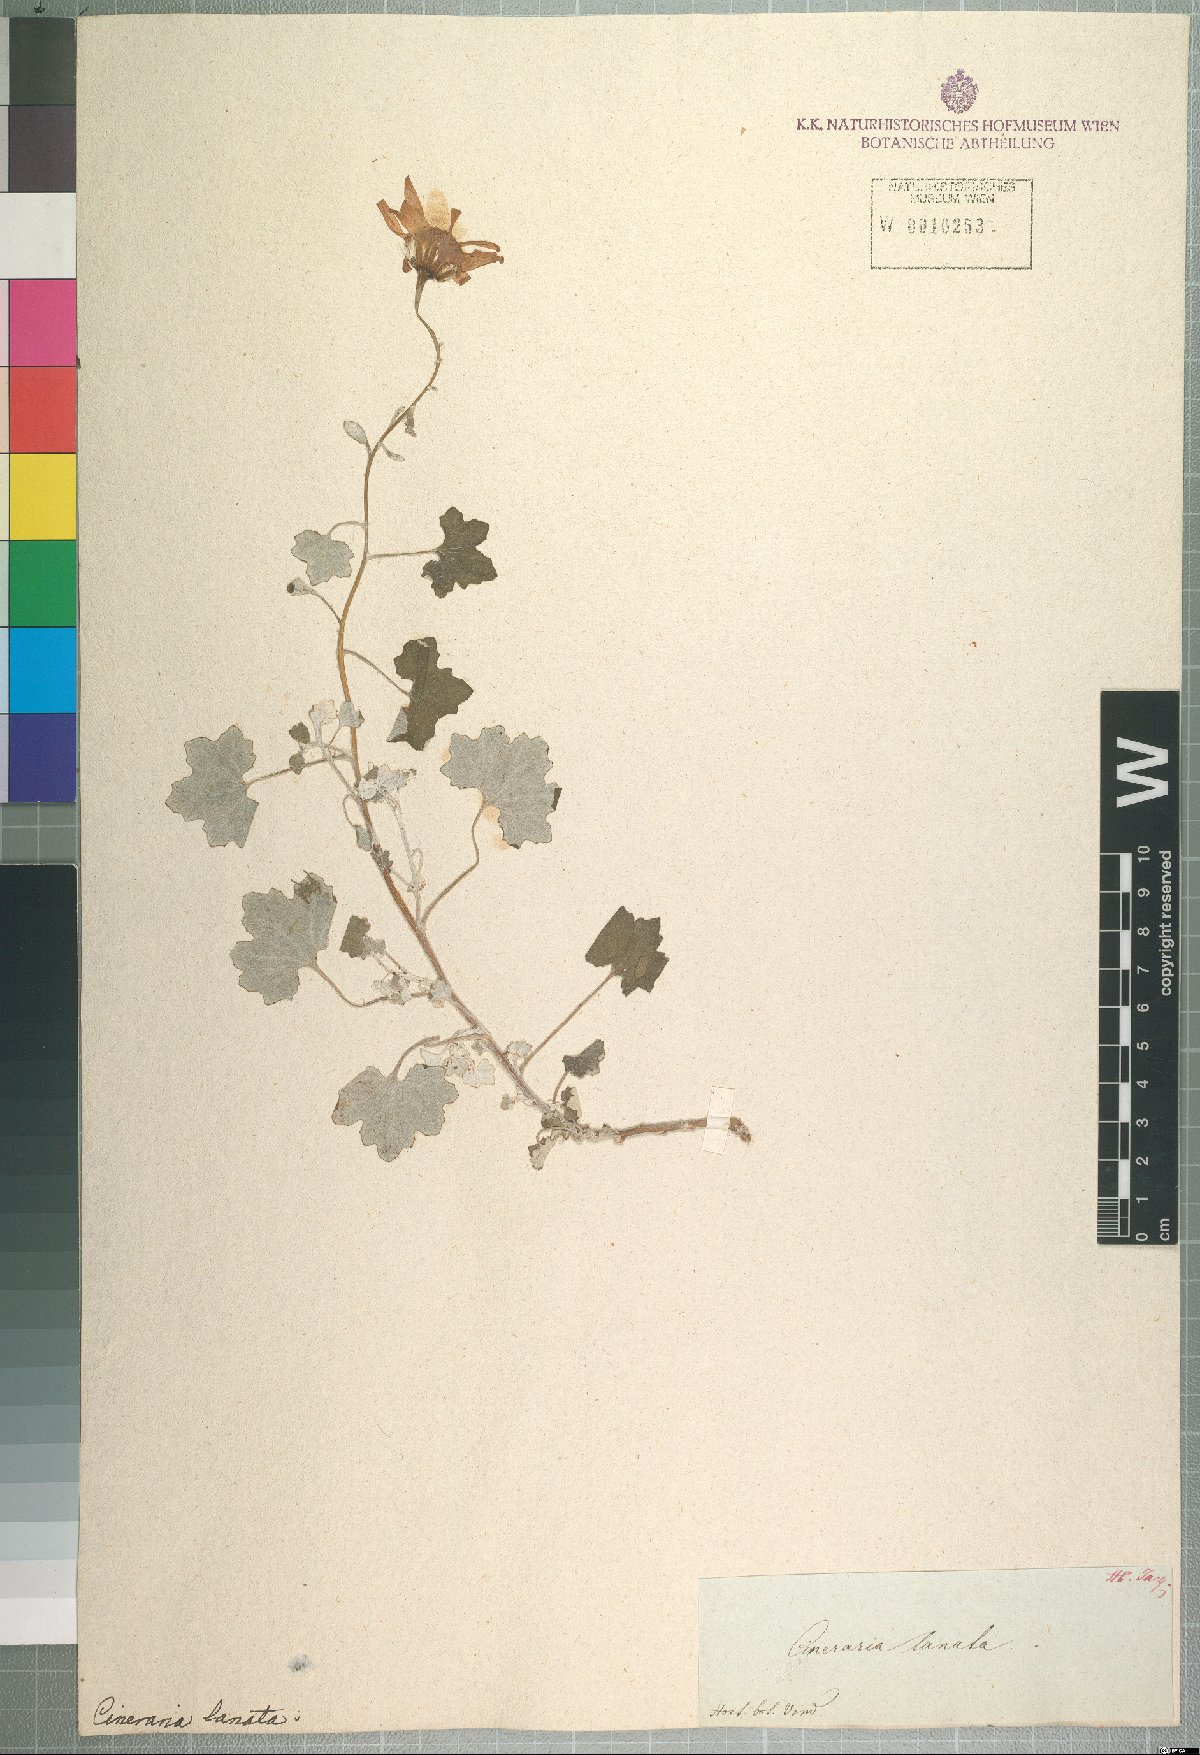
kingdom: Plantae
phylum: Tracheophyta
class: Magnoliopsida
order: Asterales
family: Asteraceae
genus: Cineraria
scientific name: Cineraria lanosa
